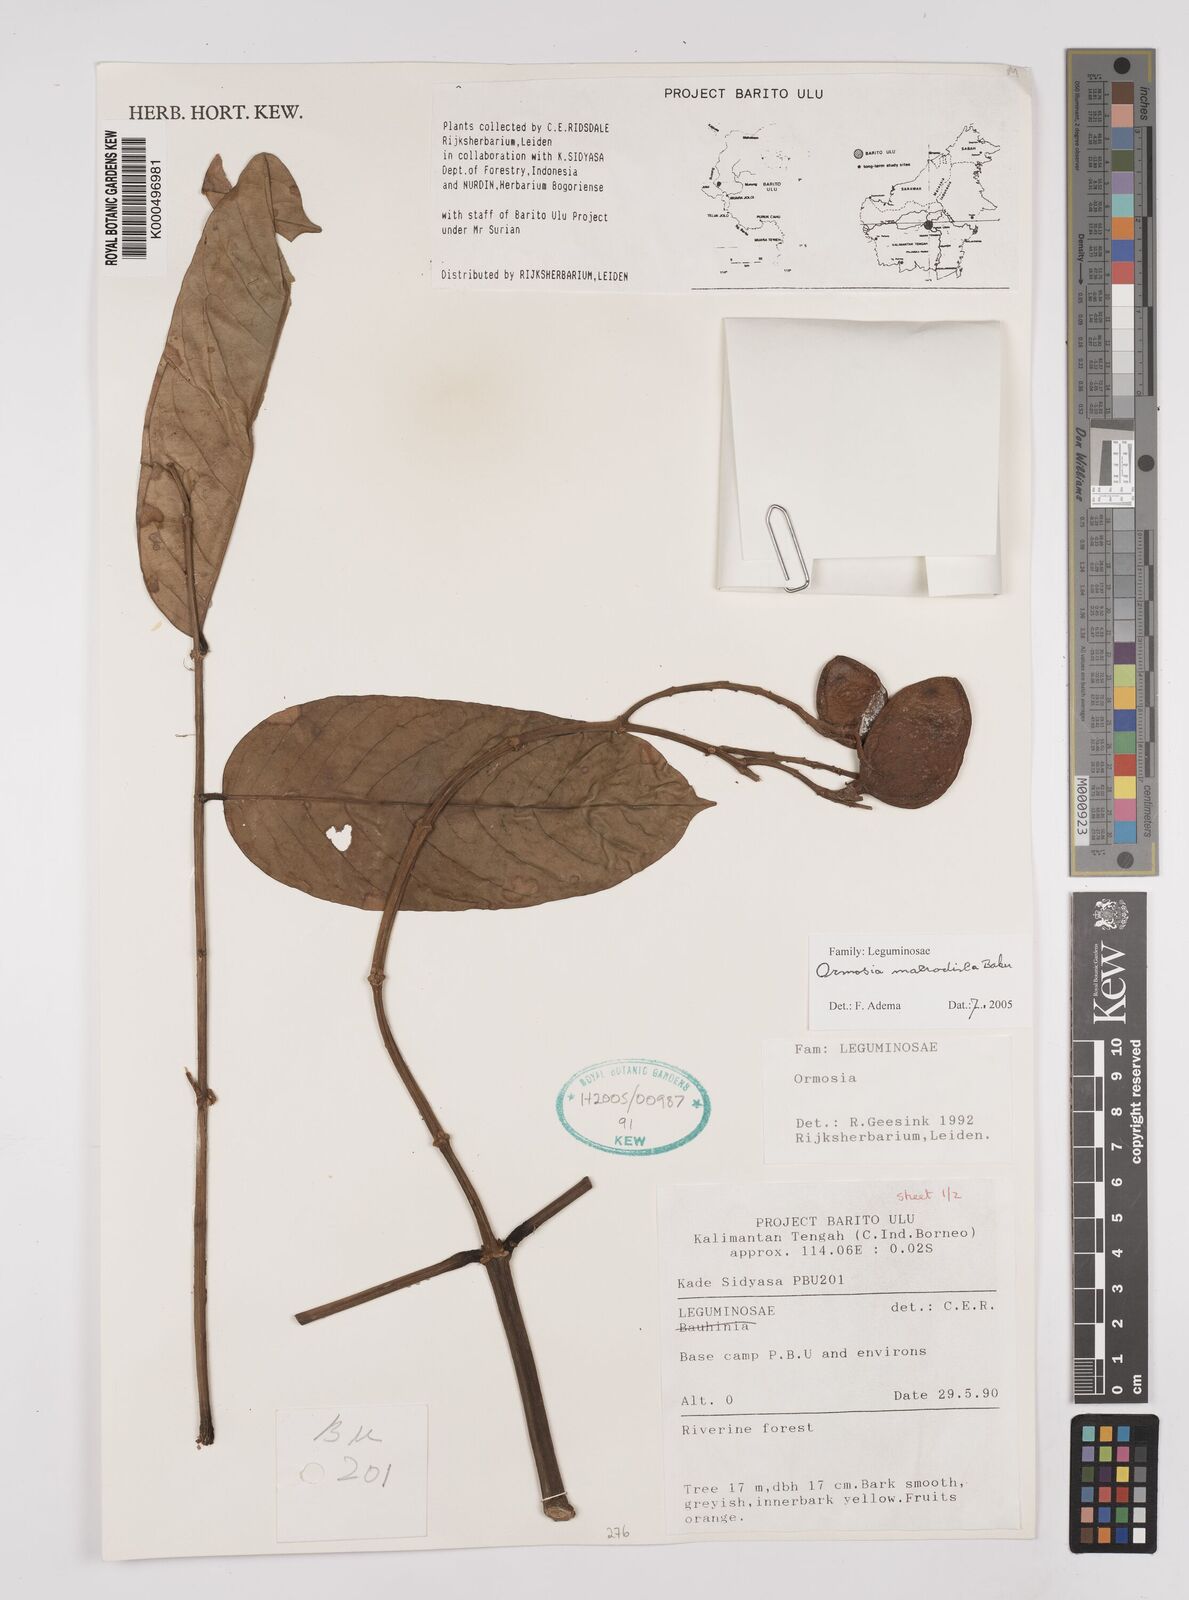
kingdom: Plantae
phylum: Tracheophyta
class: Magnoliopsida
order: Fabales
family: Fabaceae
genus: Ormosia
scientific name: Ormosia macrodisca
